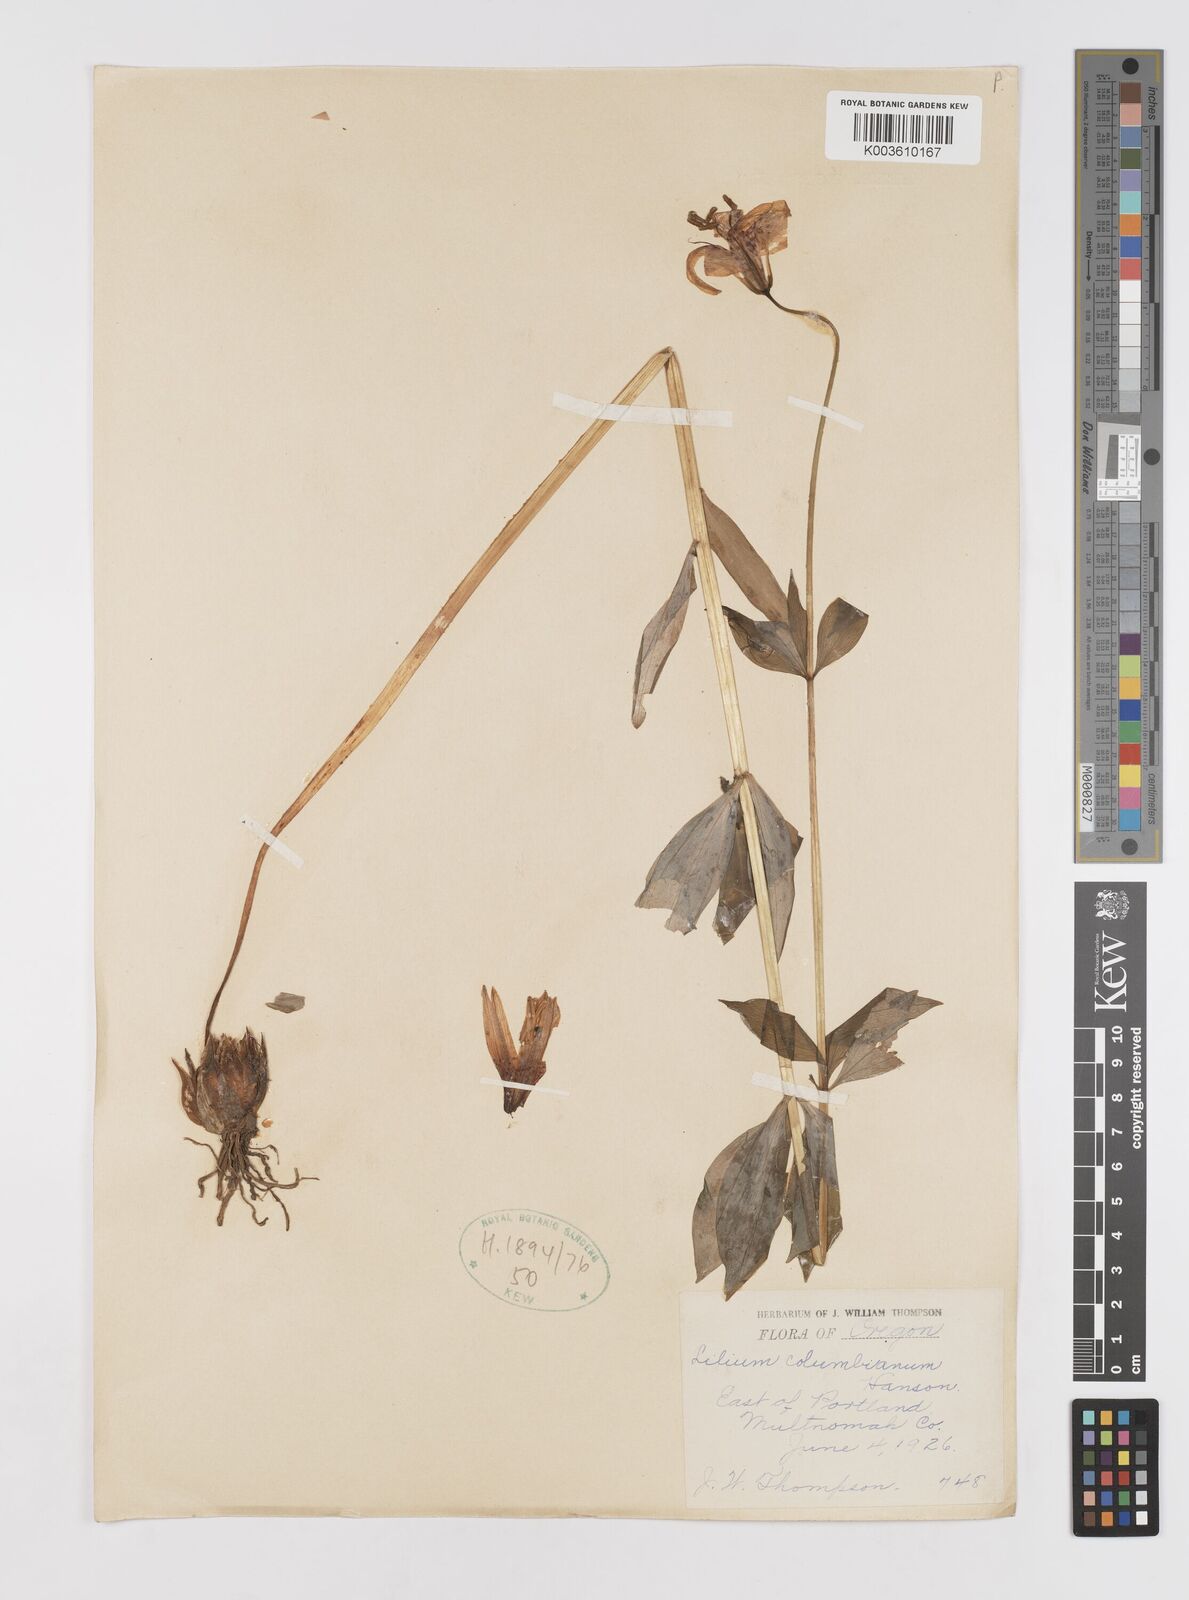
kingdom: Plantae
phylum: Tracheophyta
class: Liliopsida
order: Liliales
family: Liliaceae
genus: Lilium
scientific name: Lilium
